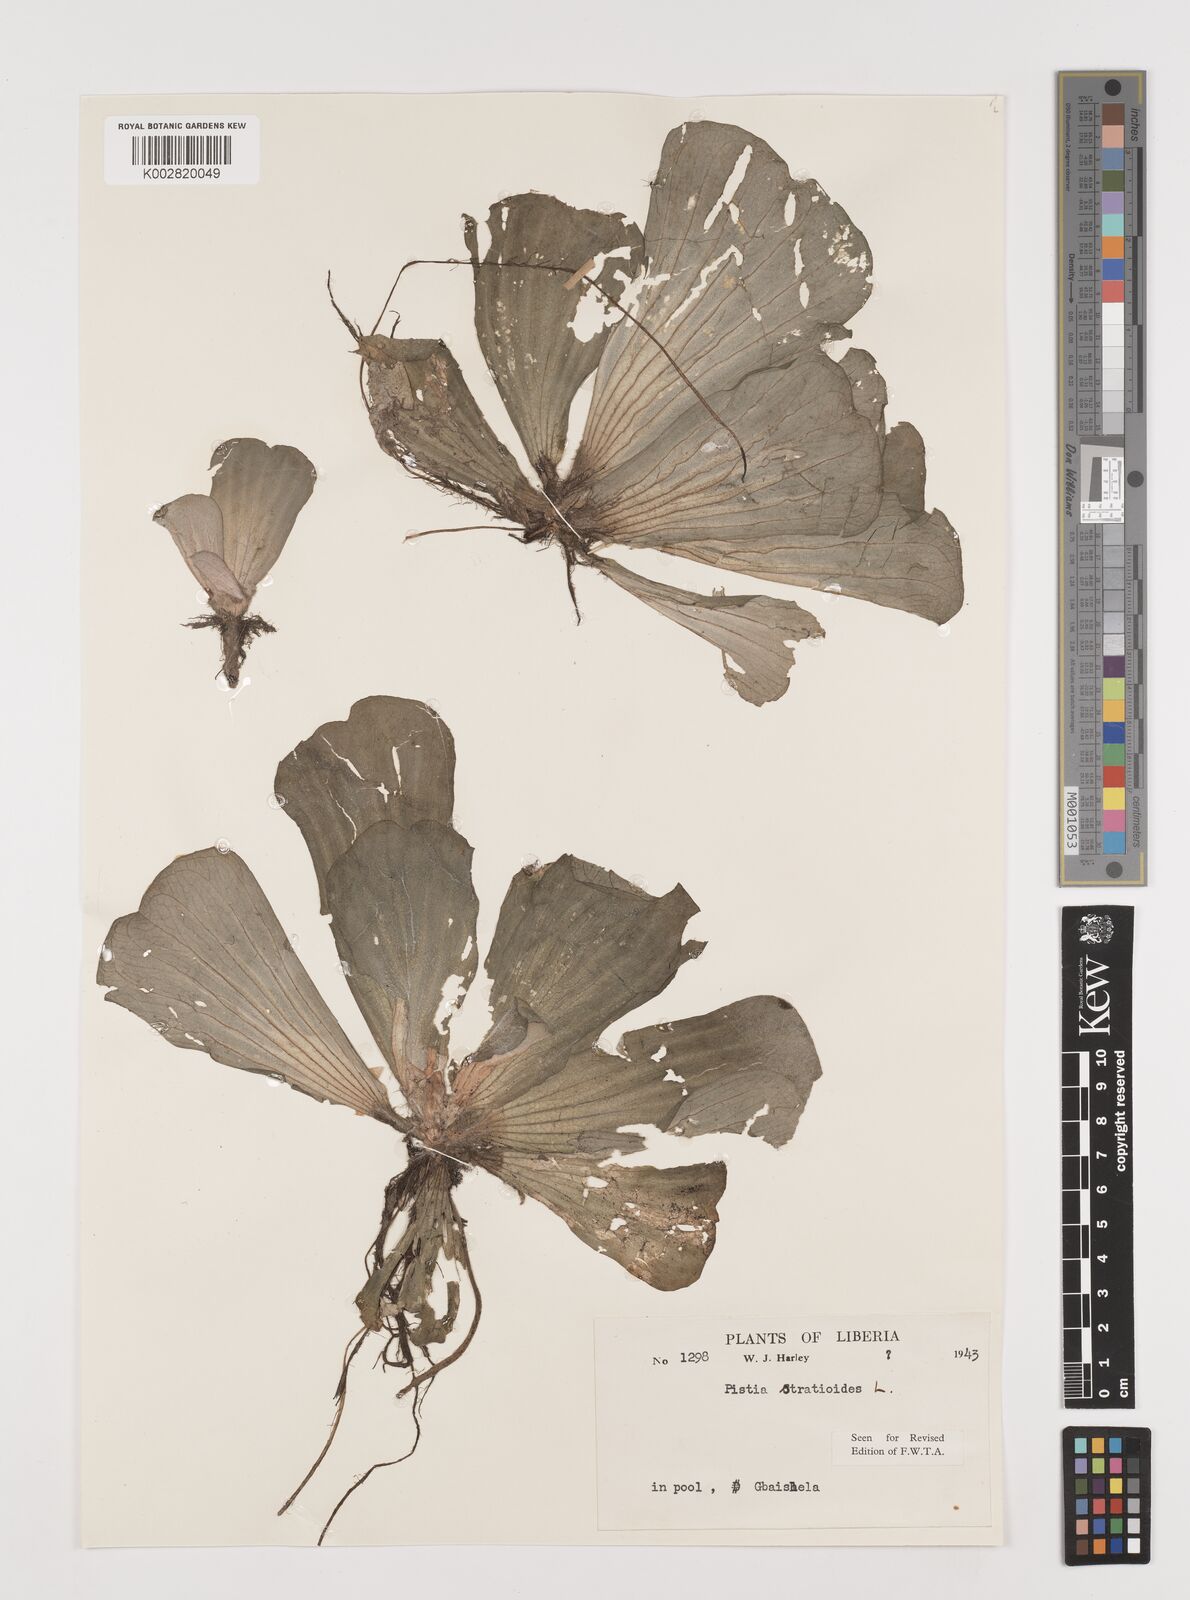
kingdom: Plantae
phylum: Tracheophyta
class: Liliopsida
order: Alismatales
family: Araceae
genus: Pistia
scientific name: Pistia stratiotes
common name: Water lettuce
